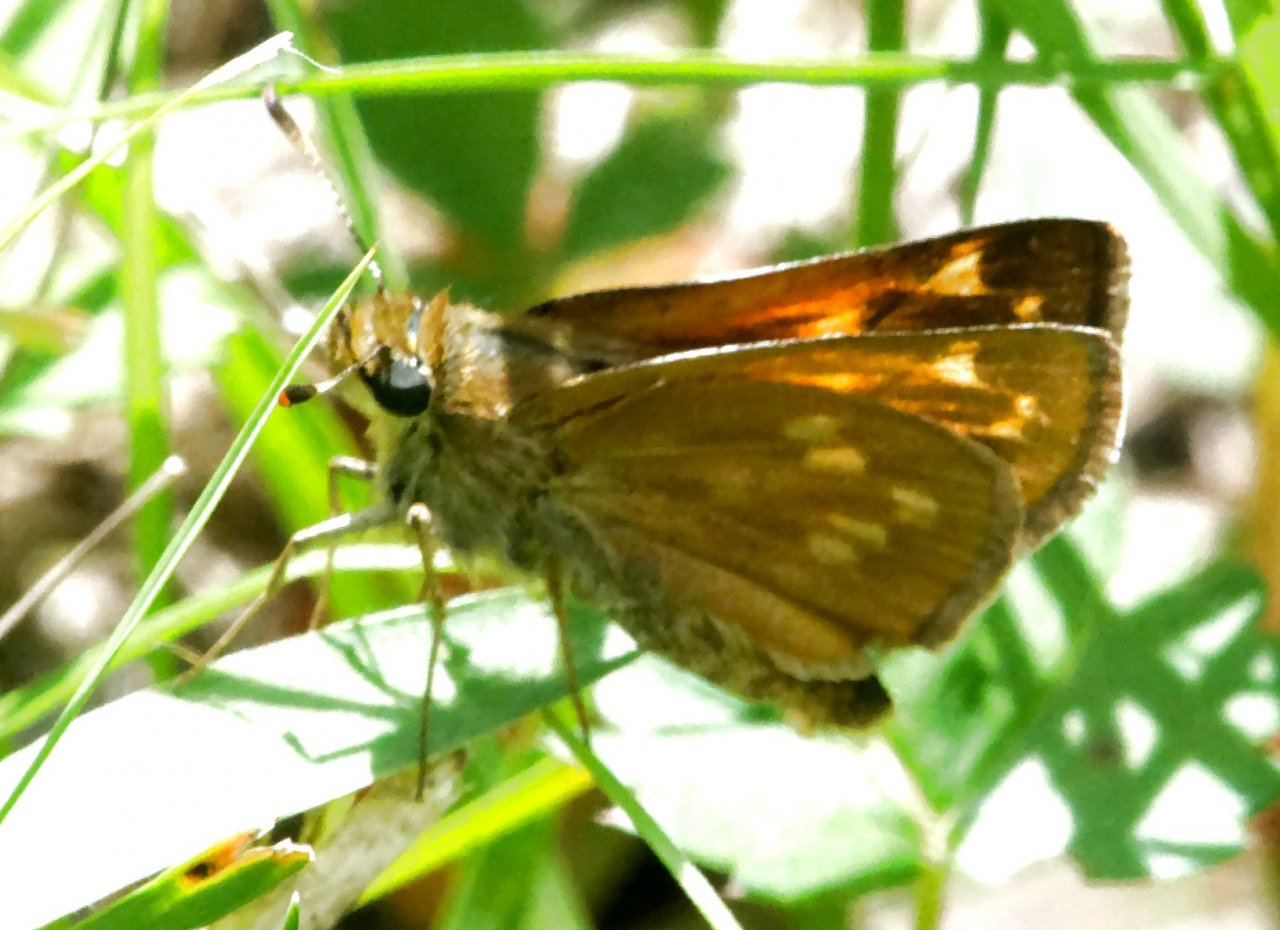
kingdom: Animalia
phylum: Arthropoda
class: Insecta
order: Lepidoptera
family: Hesperiidae
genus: Hesperia
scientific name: Hesperia sassacus
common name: Sassacus Skipper
